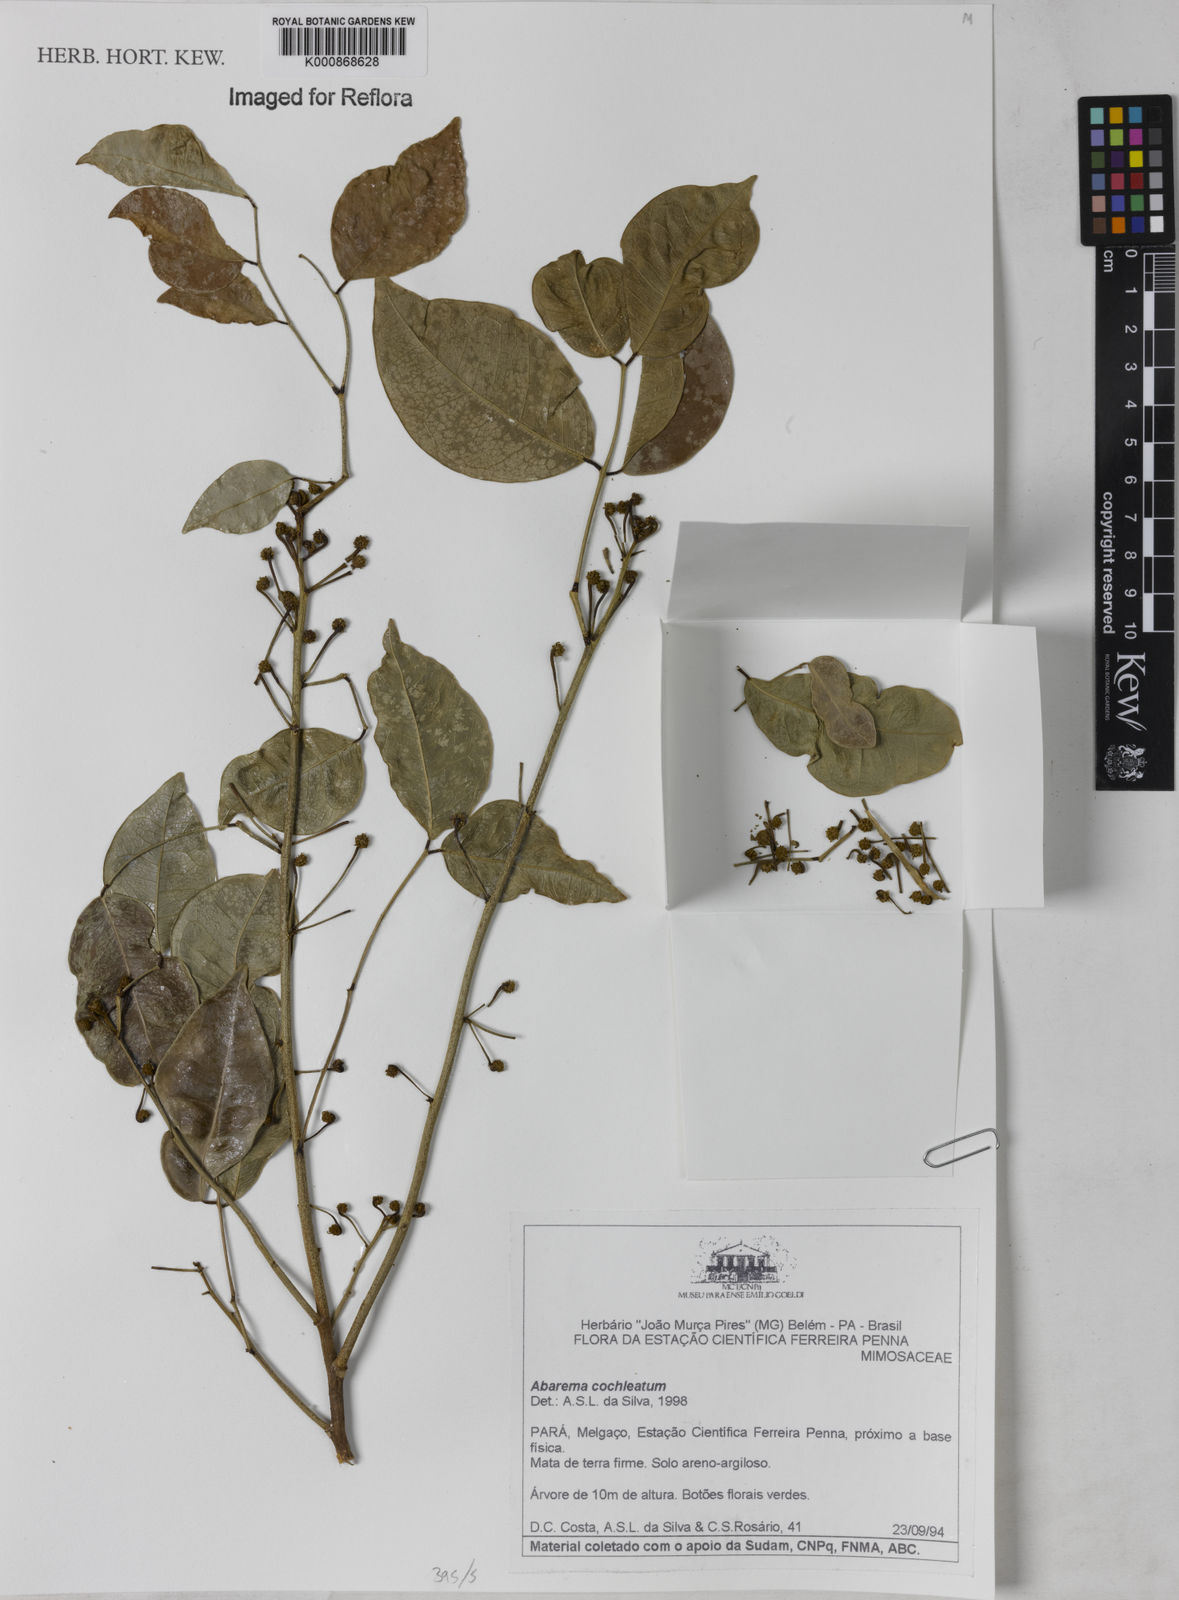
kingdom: Plantae
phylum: Tracheophyta
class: Magnoliopsida
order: Fabales
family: Fabaceae
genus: Jupunba
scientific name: Jupunba cochleata
